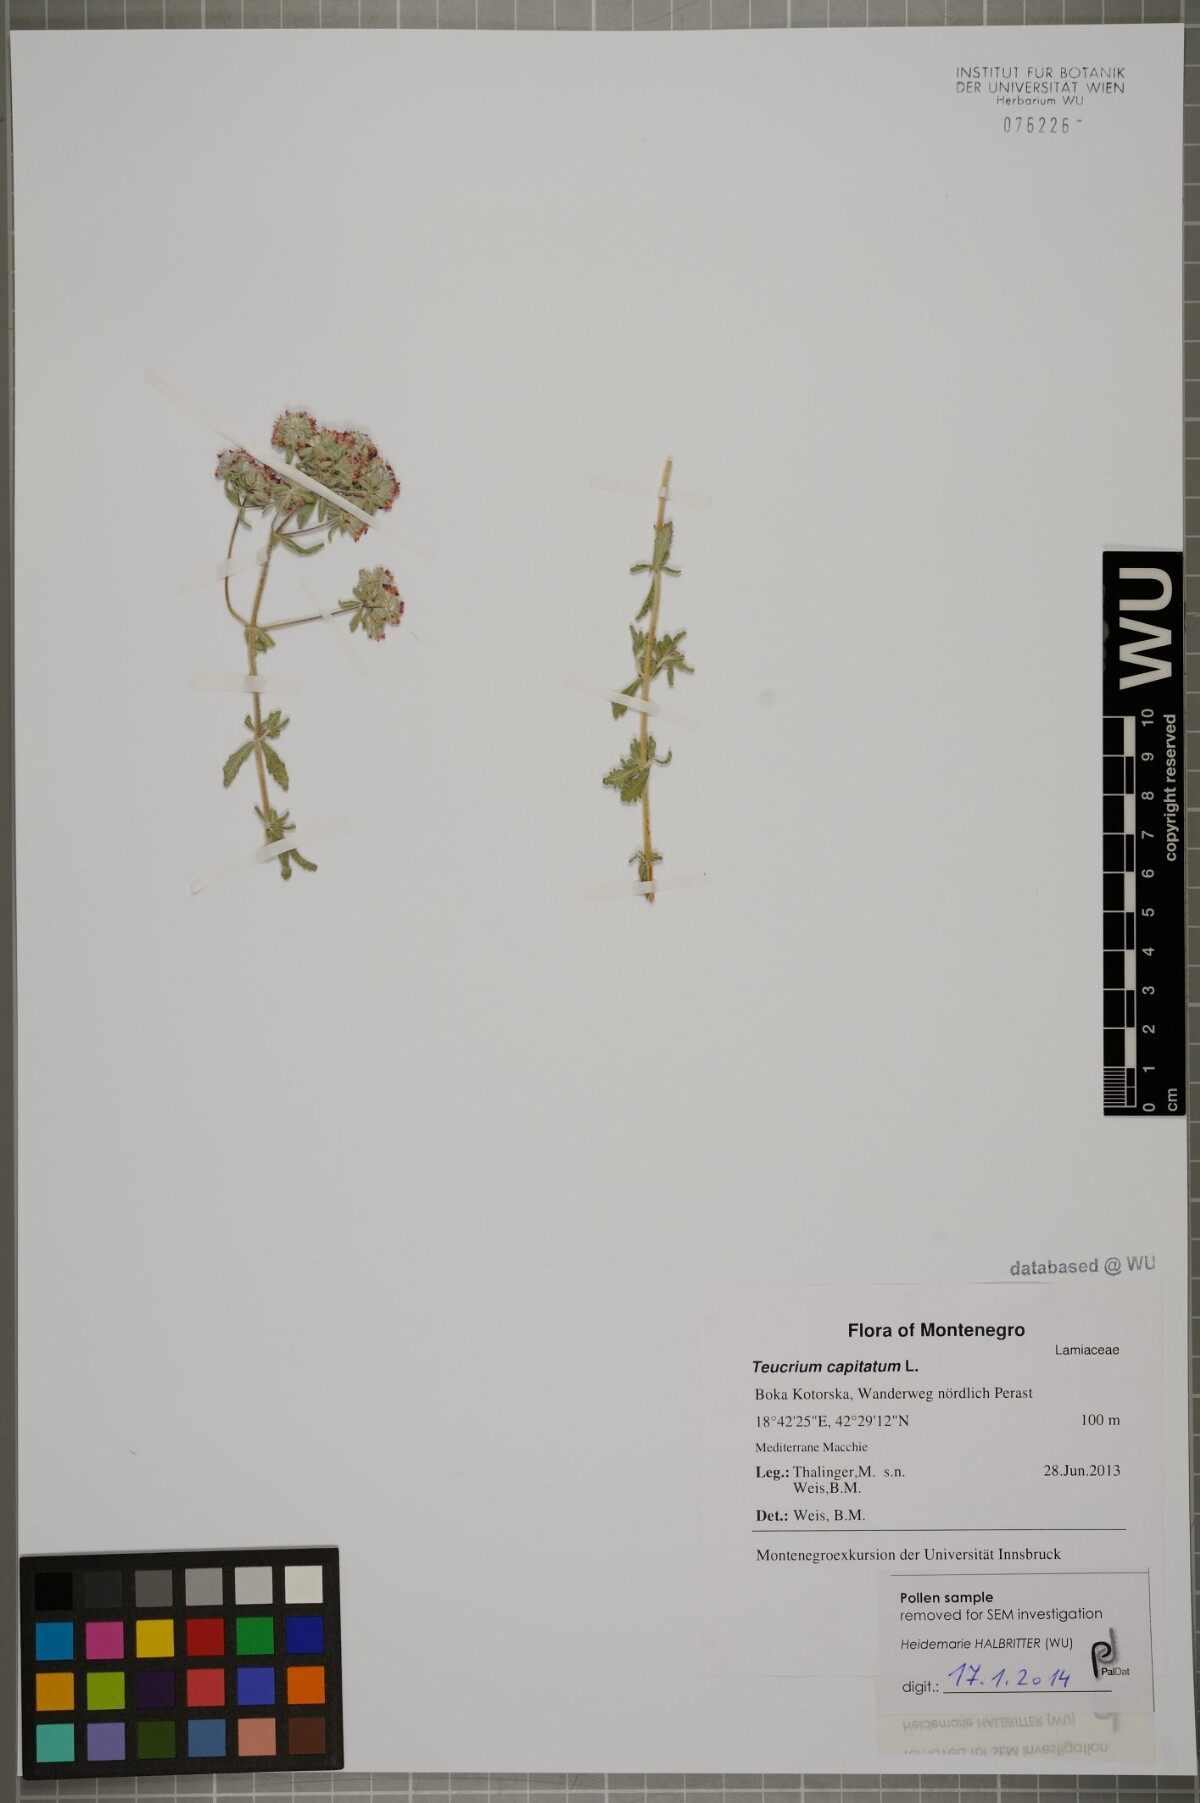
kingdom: Plantae
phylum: Tracheophyta
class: Magnoliopsida
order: Lamiales
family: Lamiaceae
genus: Teucrium
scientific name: Teucrium capitatum
